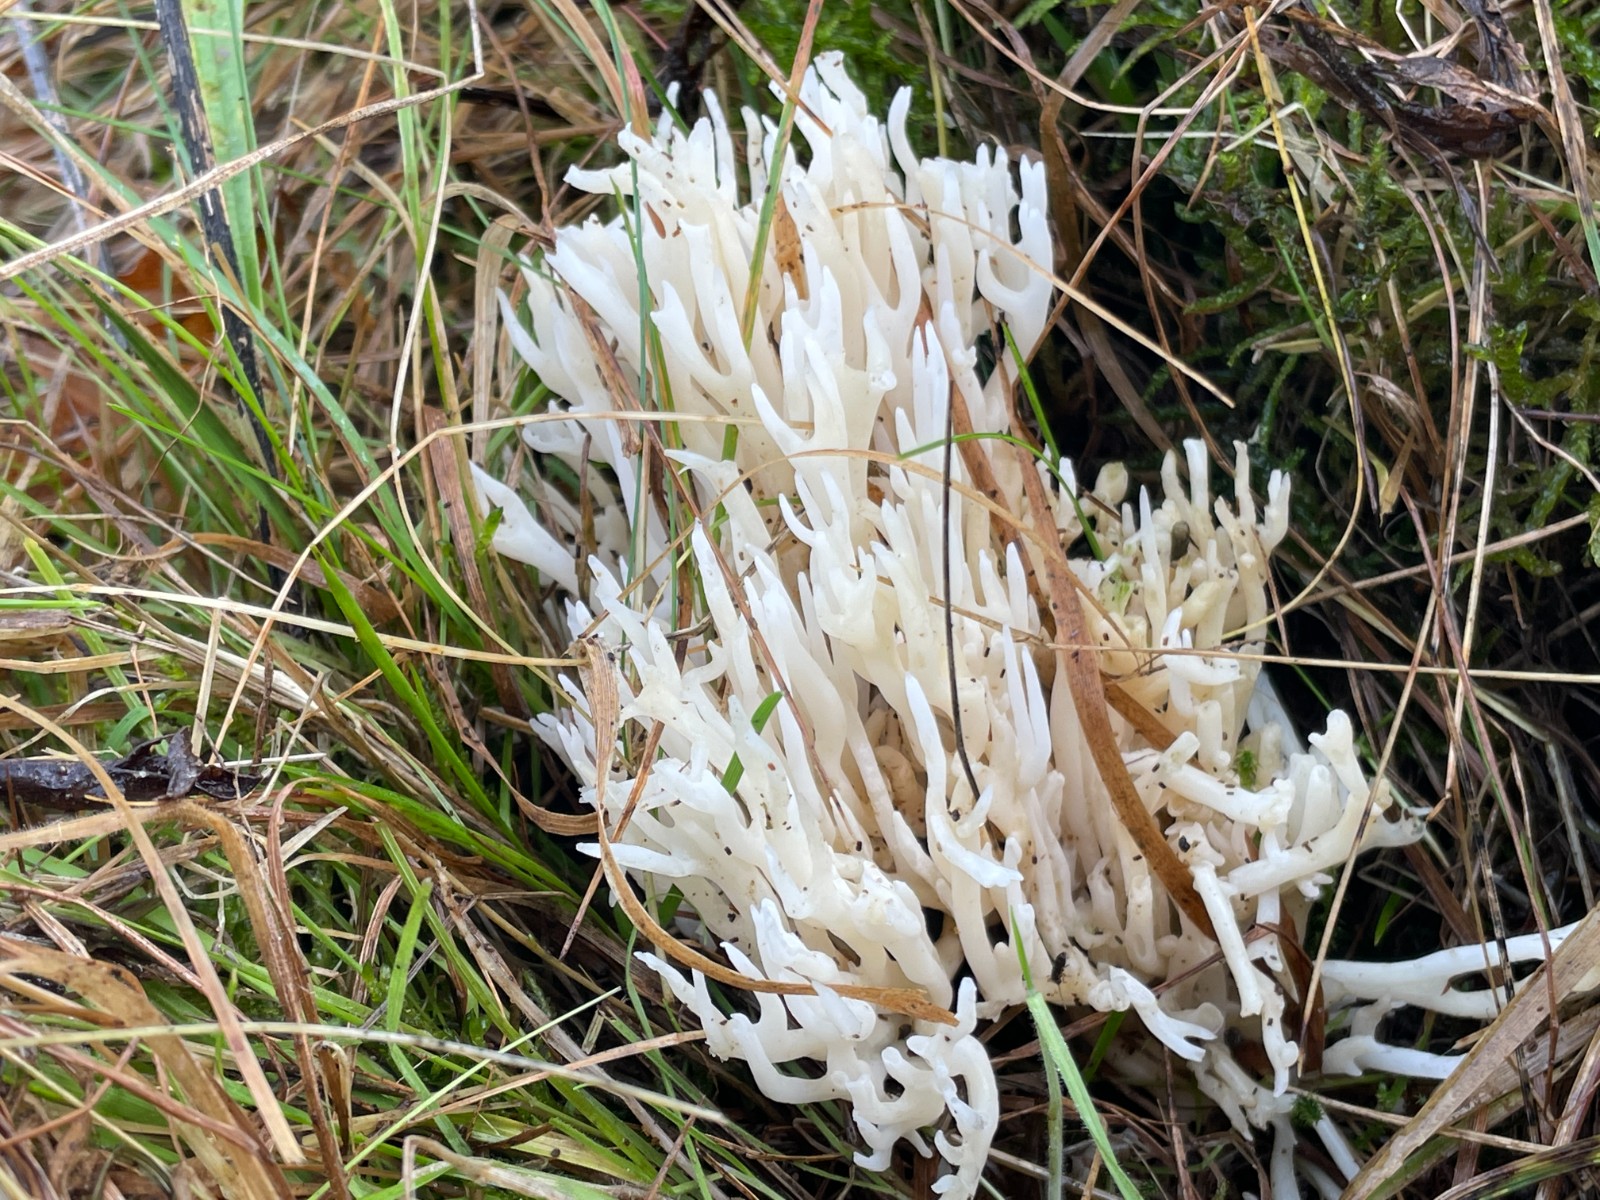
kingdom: Fungi
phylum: Basidiomycota
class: Agaricomycetes
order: Agaricales
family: Clavariaceae
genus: Ramariopsis
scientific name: Ramariopsis robusta
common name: tykgrenet køllesvamp
